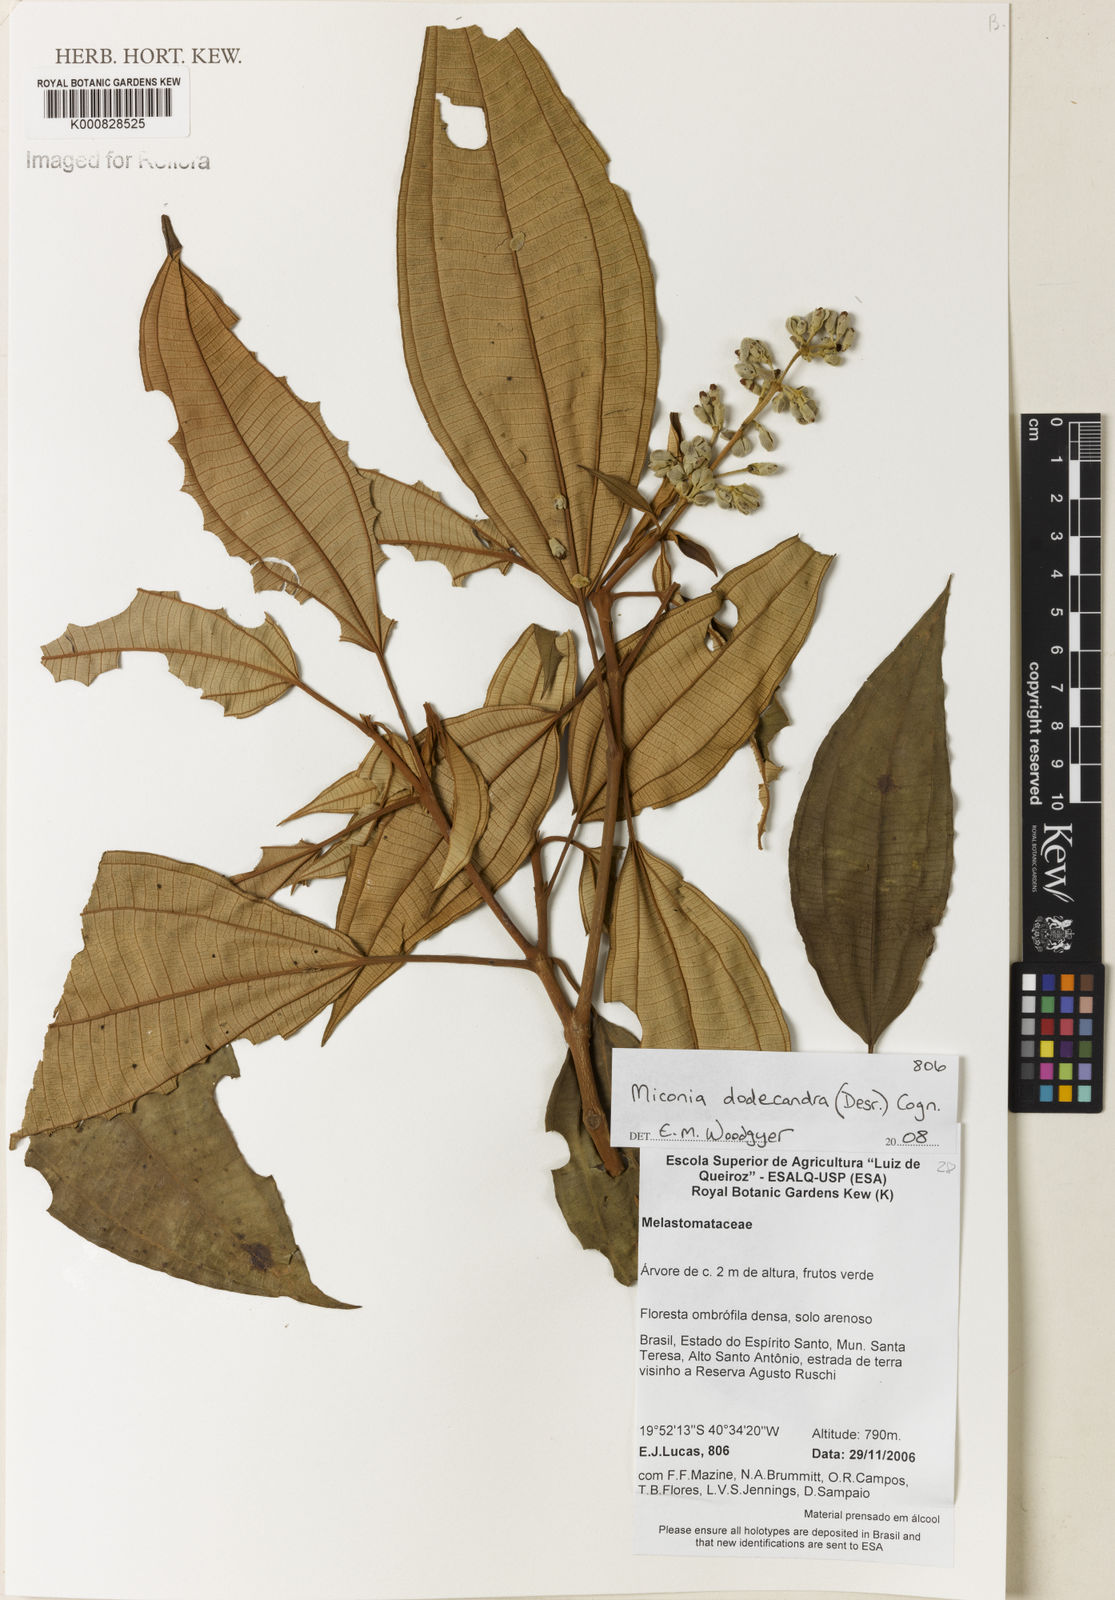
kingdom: Plantae
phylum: Tracheophyta
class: Magnoliopsida
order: Myrtales
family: Melastomataceae
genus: Miconia
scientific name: Miconia dodecandra
